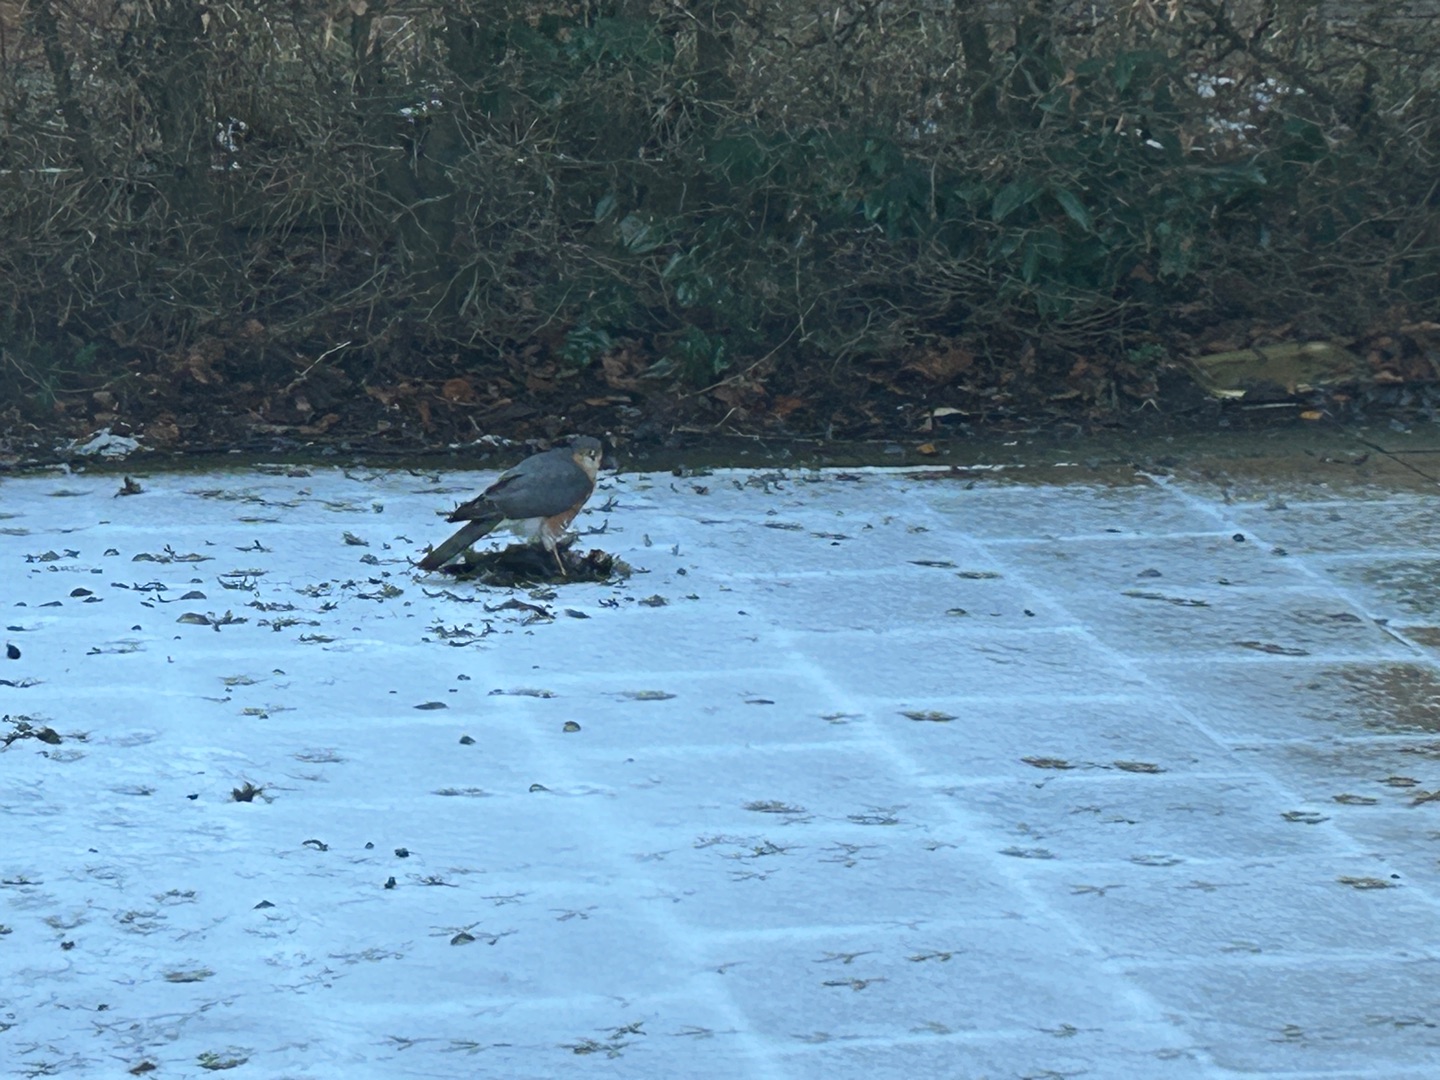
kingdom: Animalia
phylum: Chordata
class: Aves
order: Accipitriformes
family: Accipitridae
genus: Accipiter
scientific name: Accipiter nisus
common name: Spurvehøg
